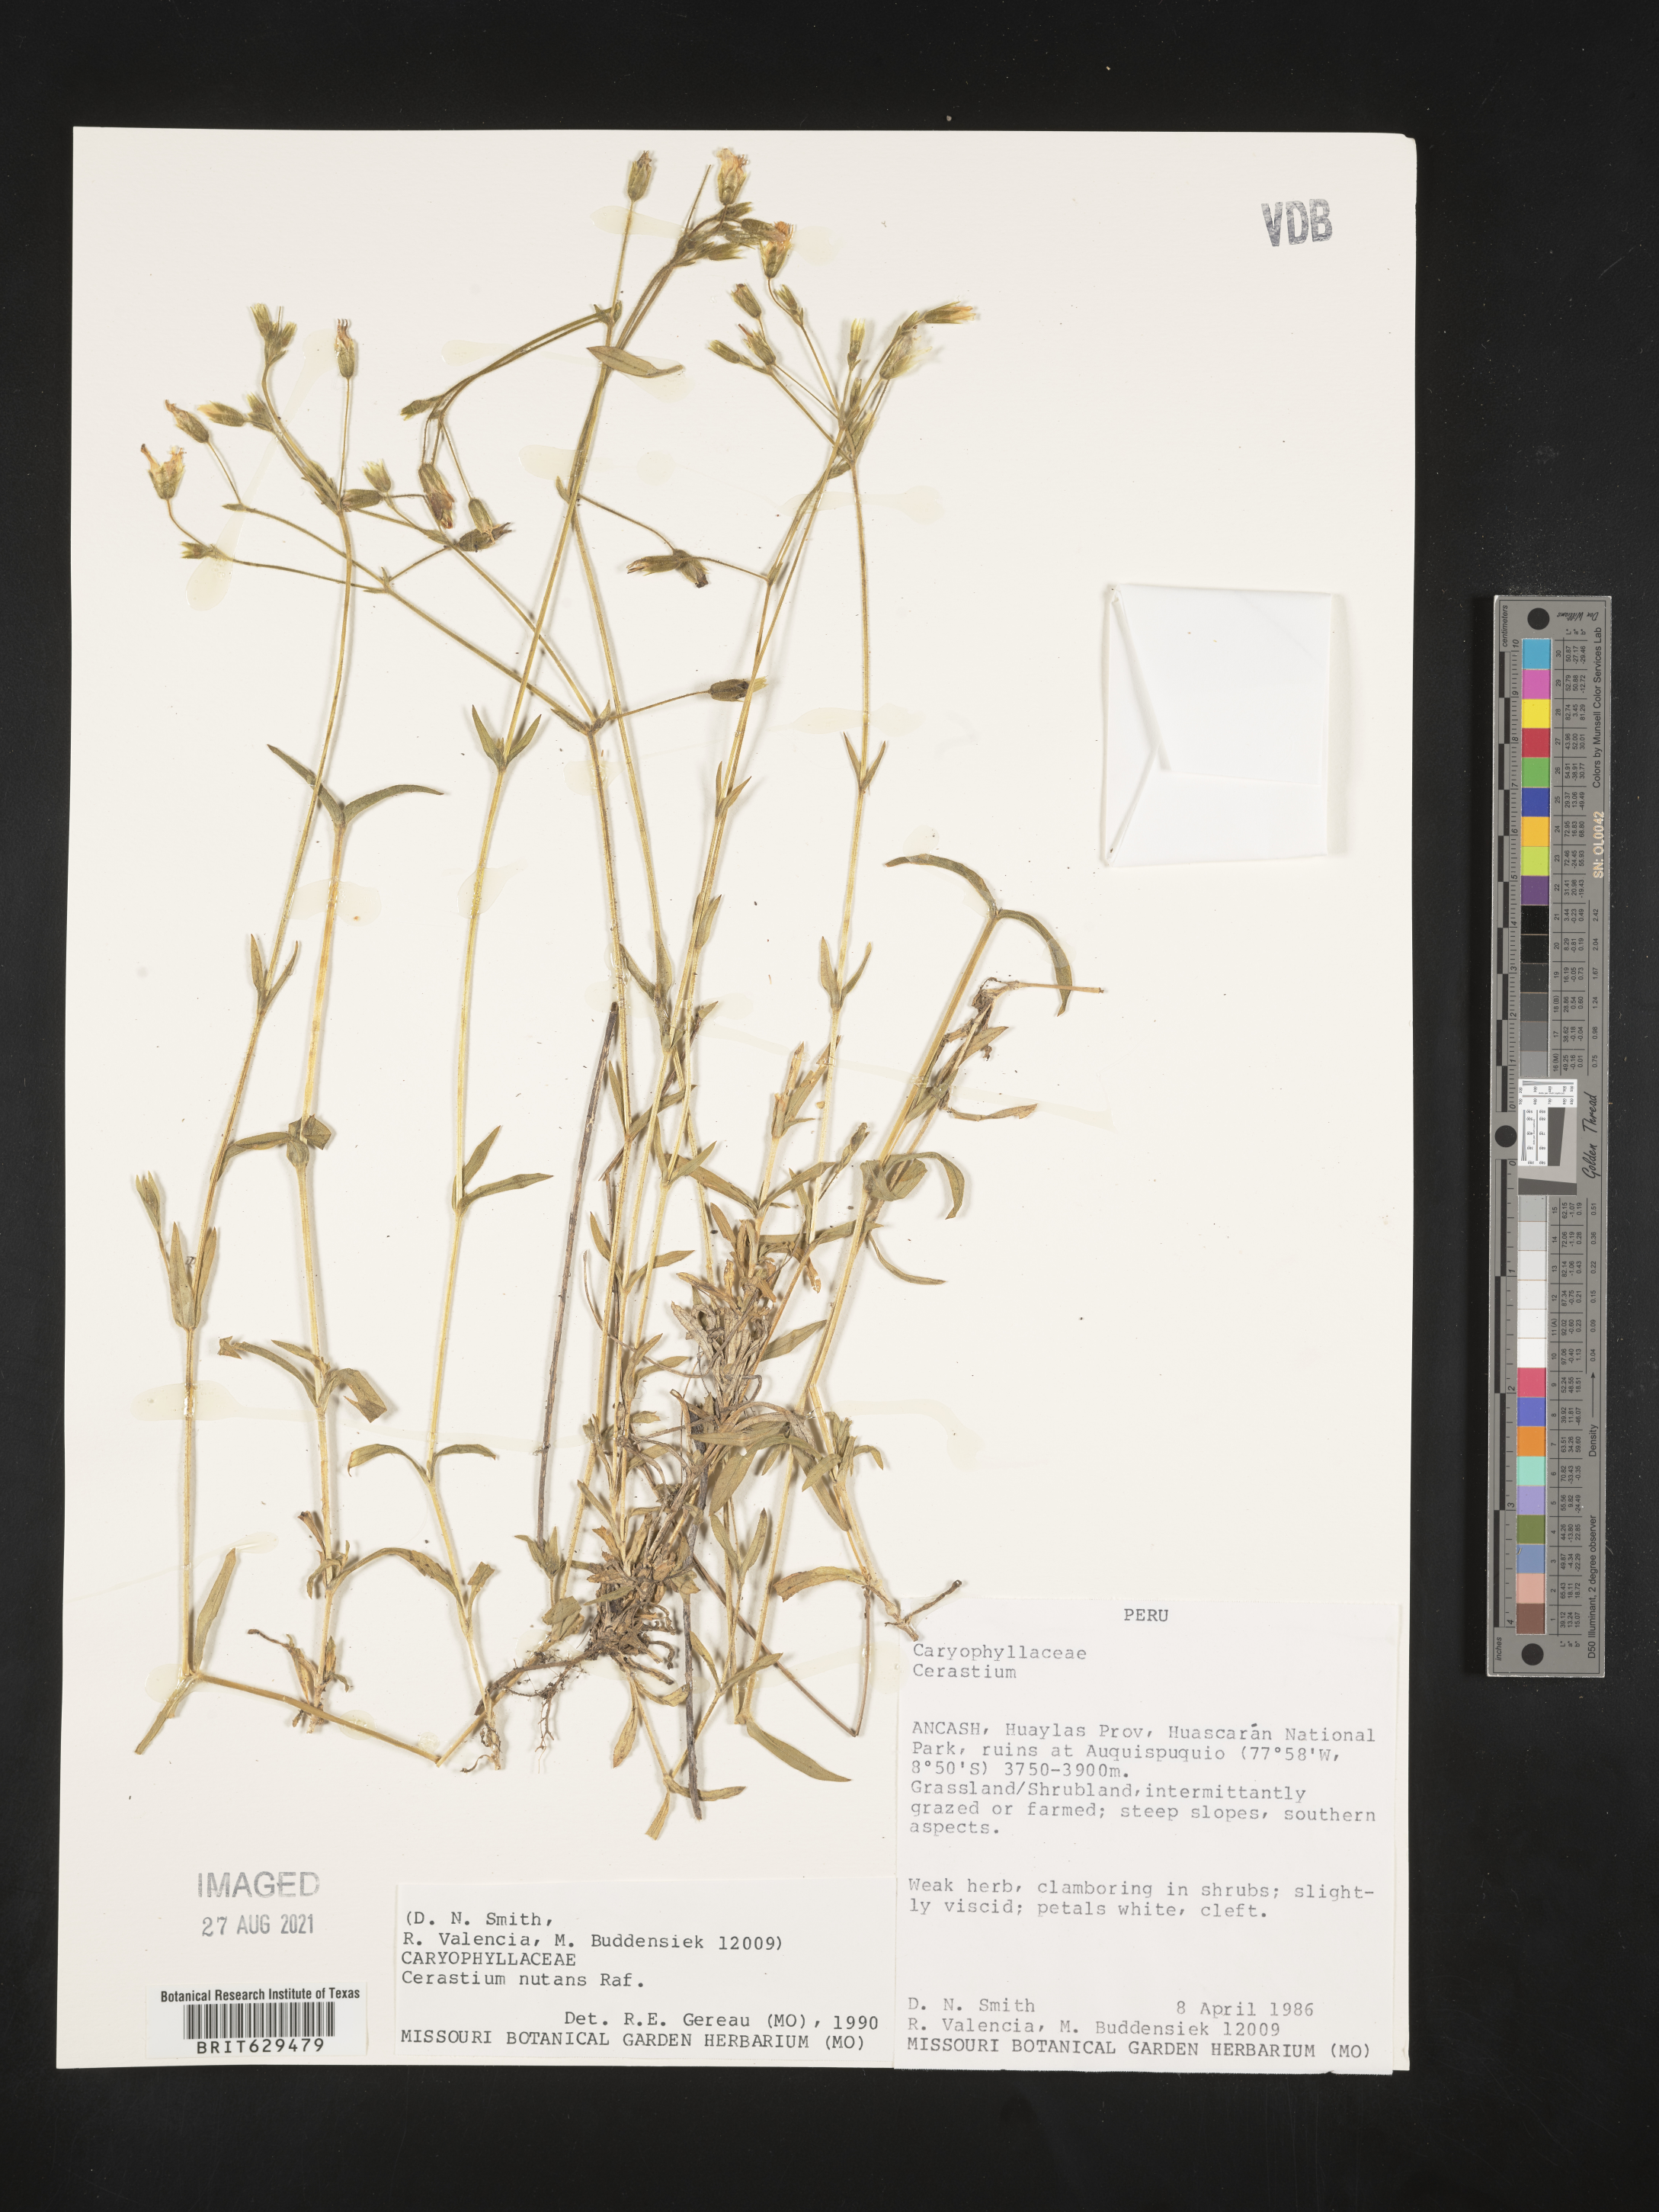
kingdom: Plantae
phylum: Tracheophyta
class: Magnoliopsida
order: Caryophyllales
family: Caryophyllaceae
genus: Cerastium
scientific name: Cerastium nutans
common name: Long-stalked chickweed
